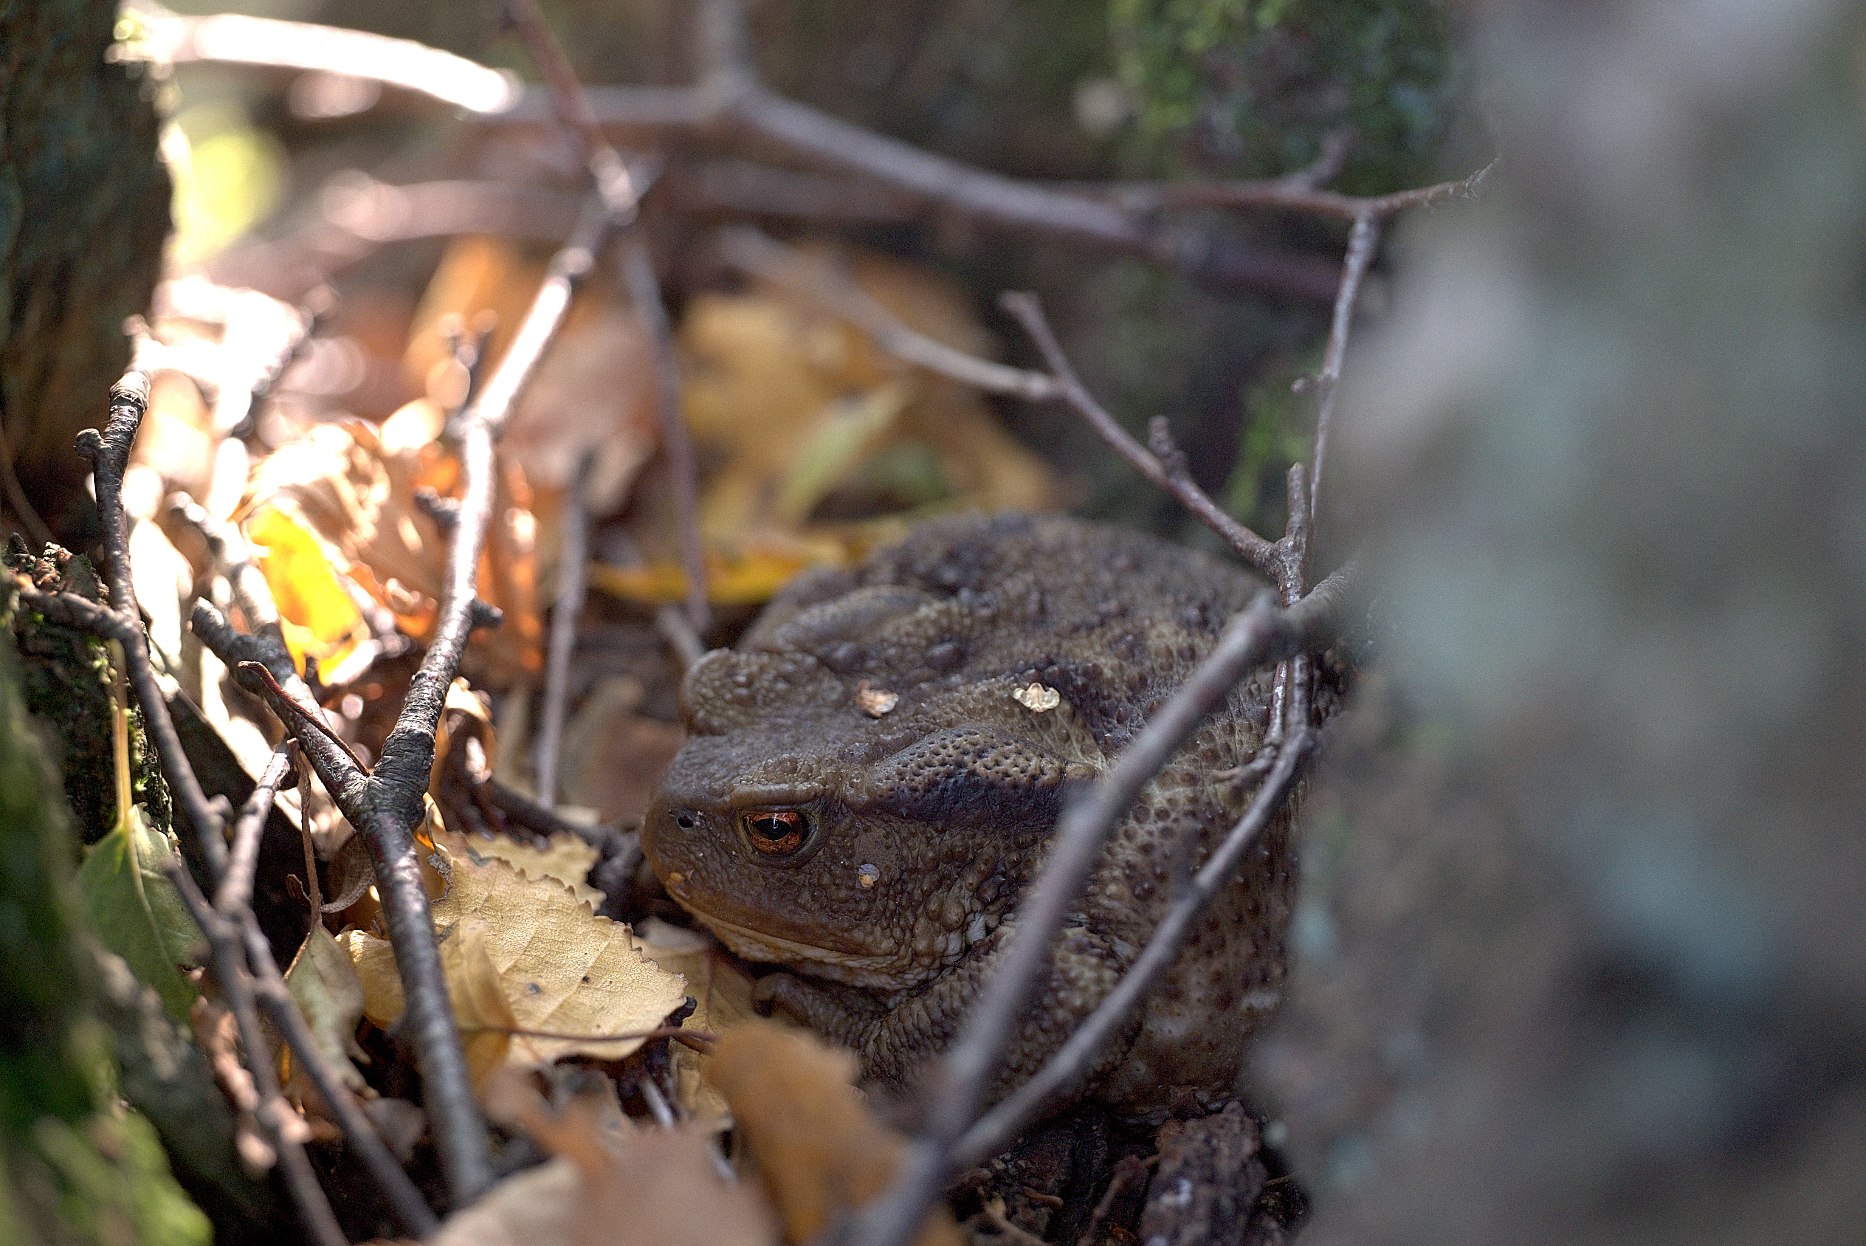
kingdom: Animalia
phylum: Chordata
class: Amphibia
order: Anura
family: Bufonidae
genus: Bufo
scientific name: Bufo bufo
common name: Skrubtudse
